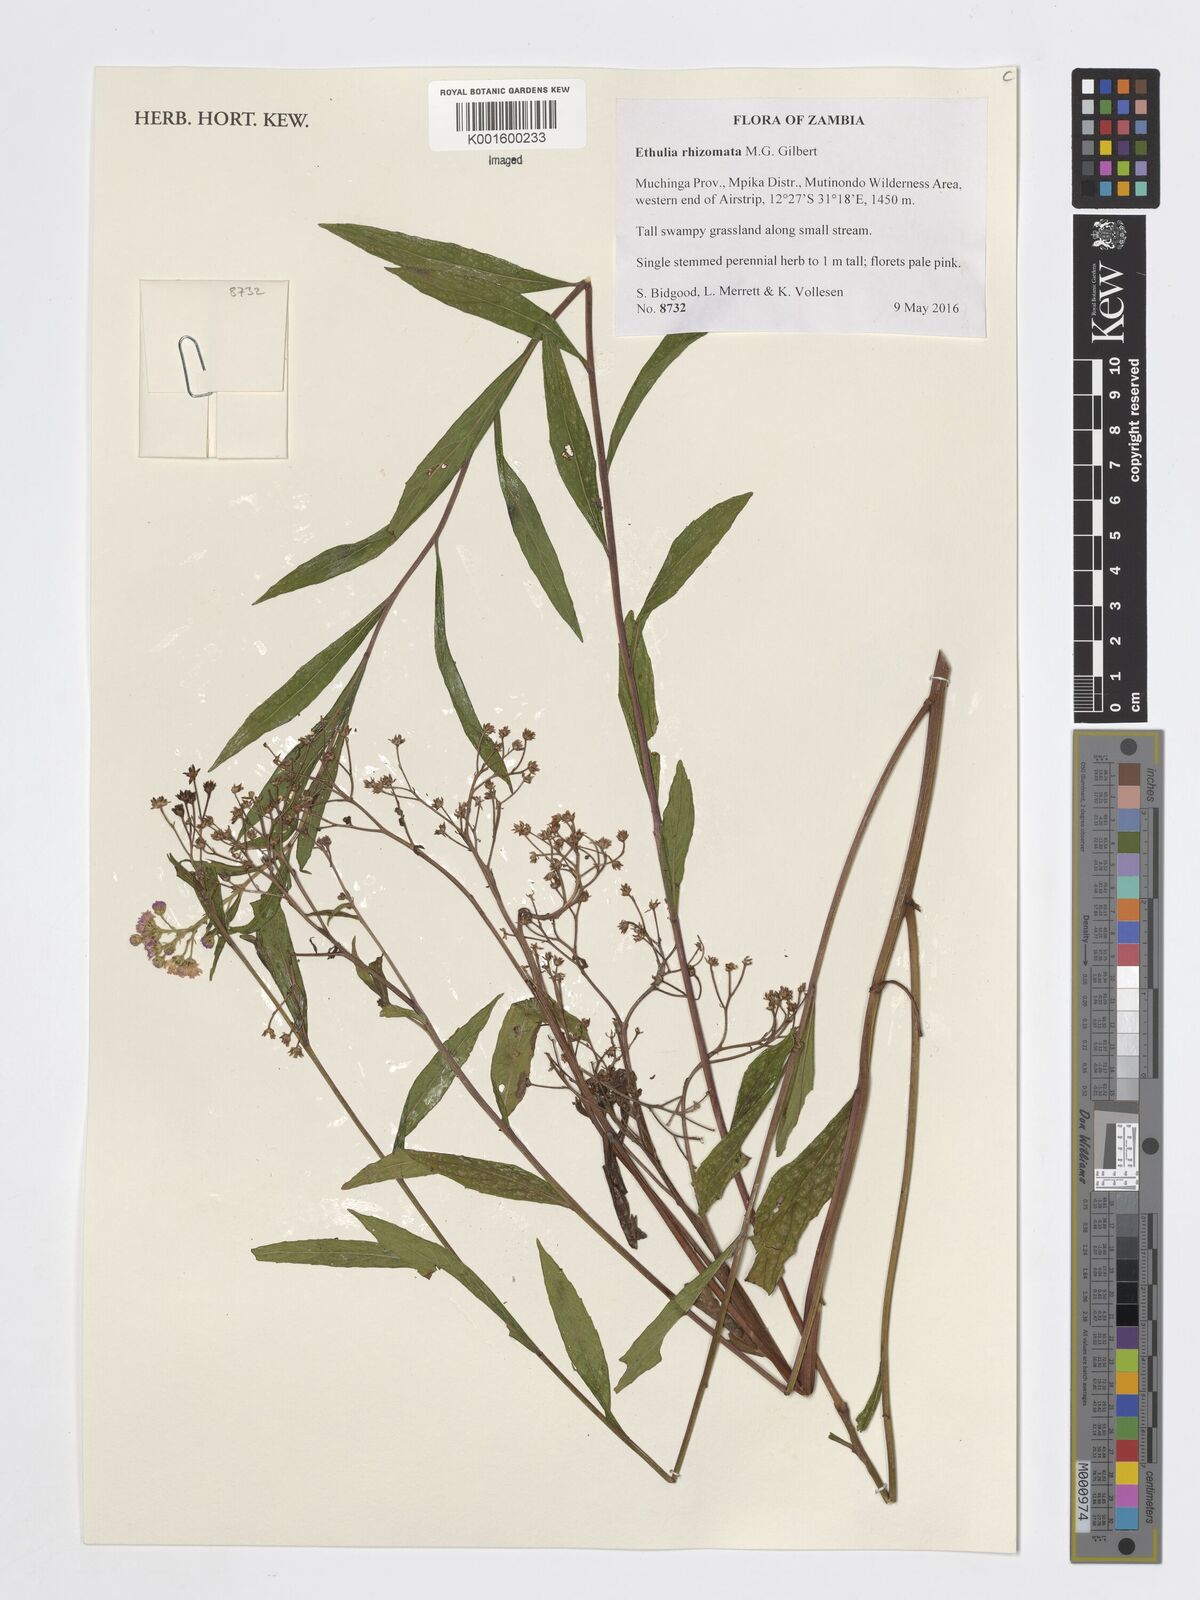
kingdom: Plantae
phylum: Tracheophyta
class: Magnoliopsida
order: Asterales
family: Asteraceae
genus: Ethulia
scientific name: Ethulia rhizomata
